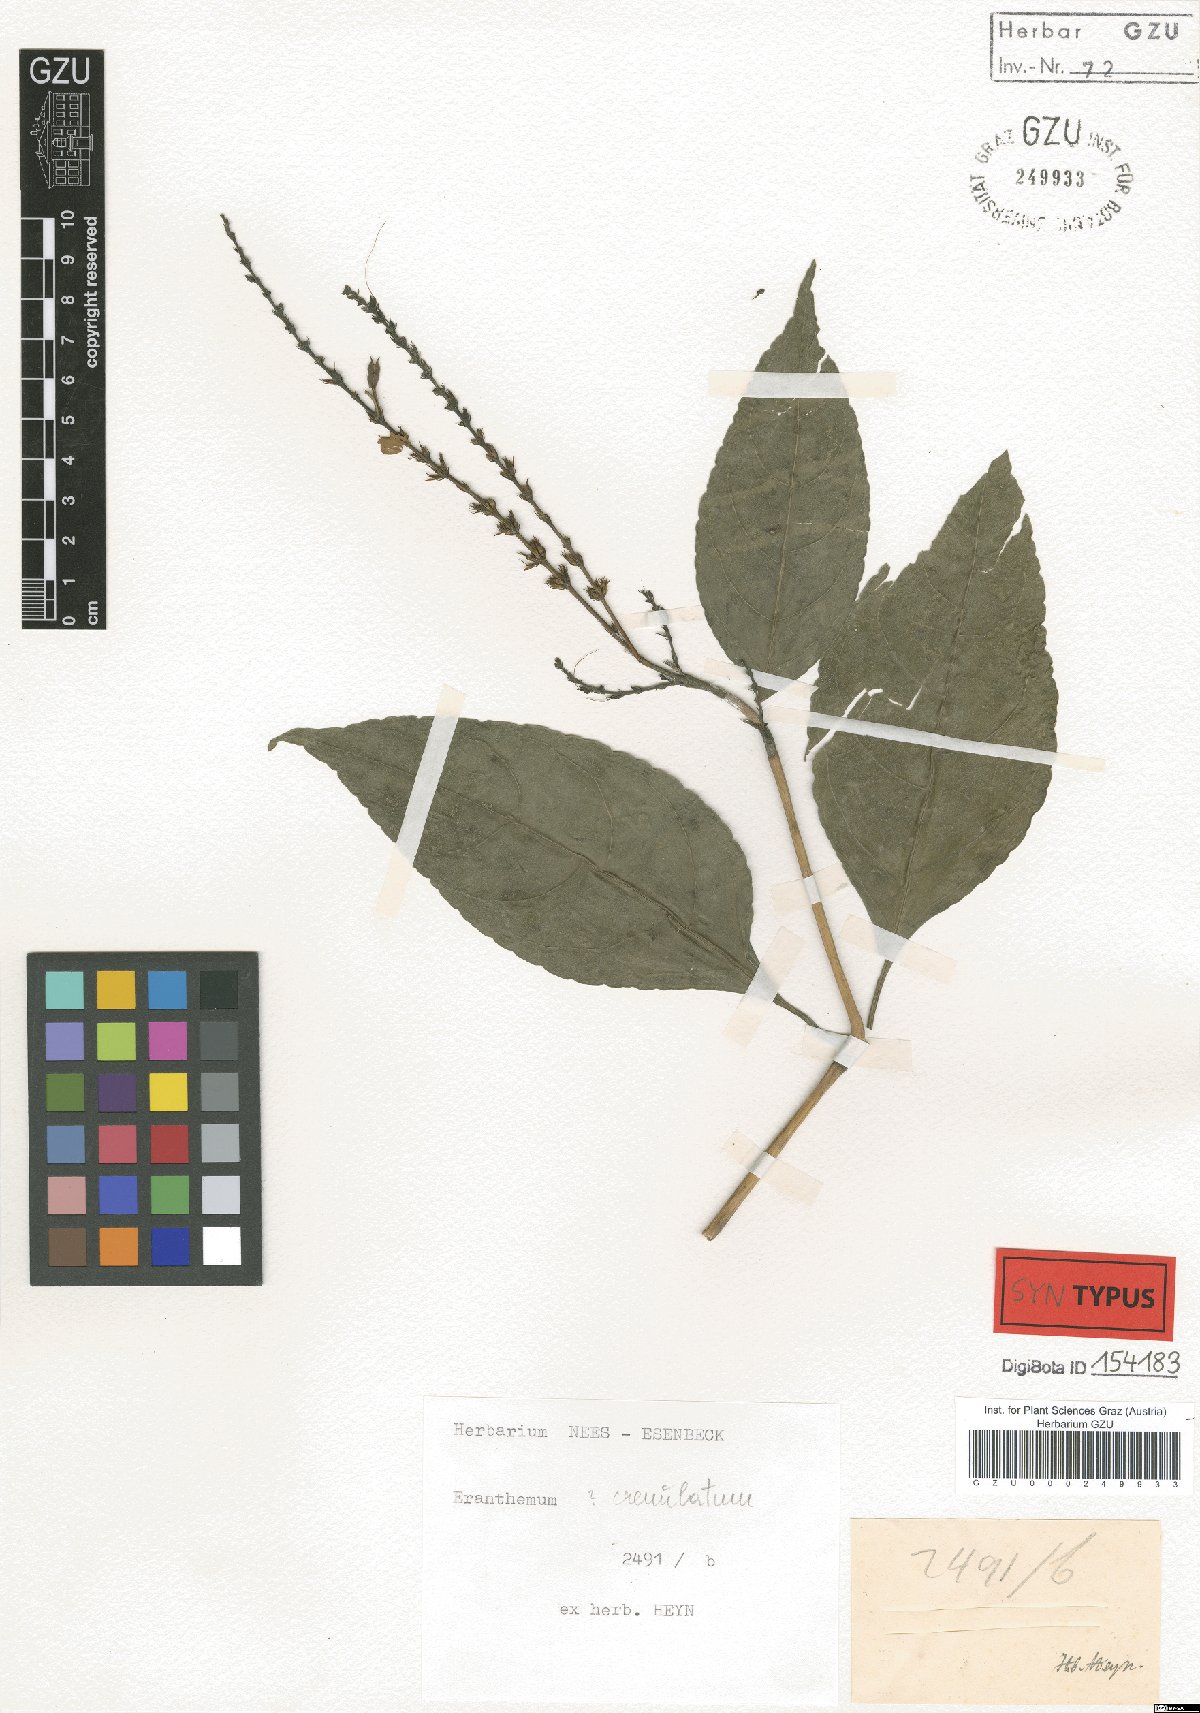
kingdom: Plantae
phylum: Tracheophyta
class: Magnoliopsida
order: Lamiales
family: Acanthaceae
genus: Pseuderanthemum
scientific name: Pseuderanthemum crenulatum
